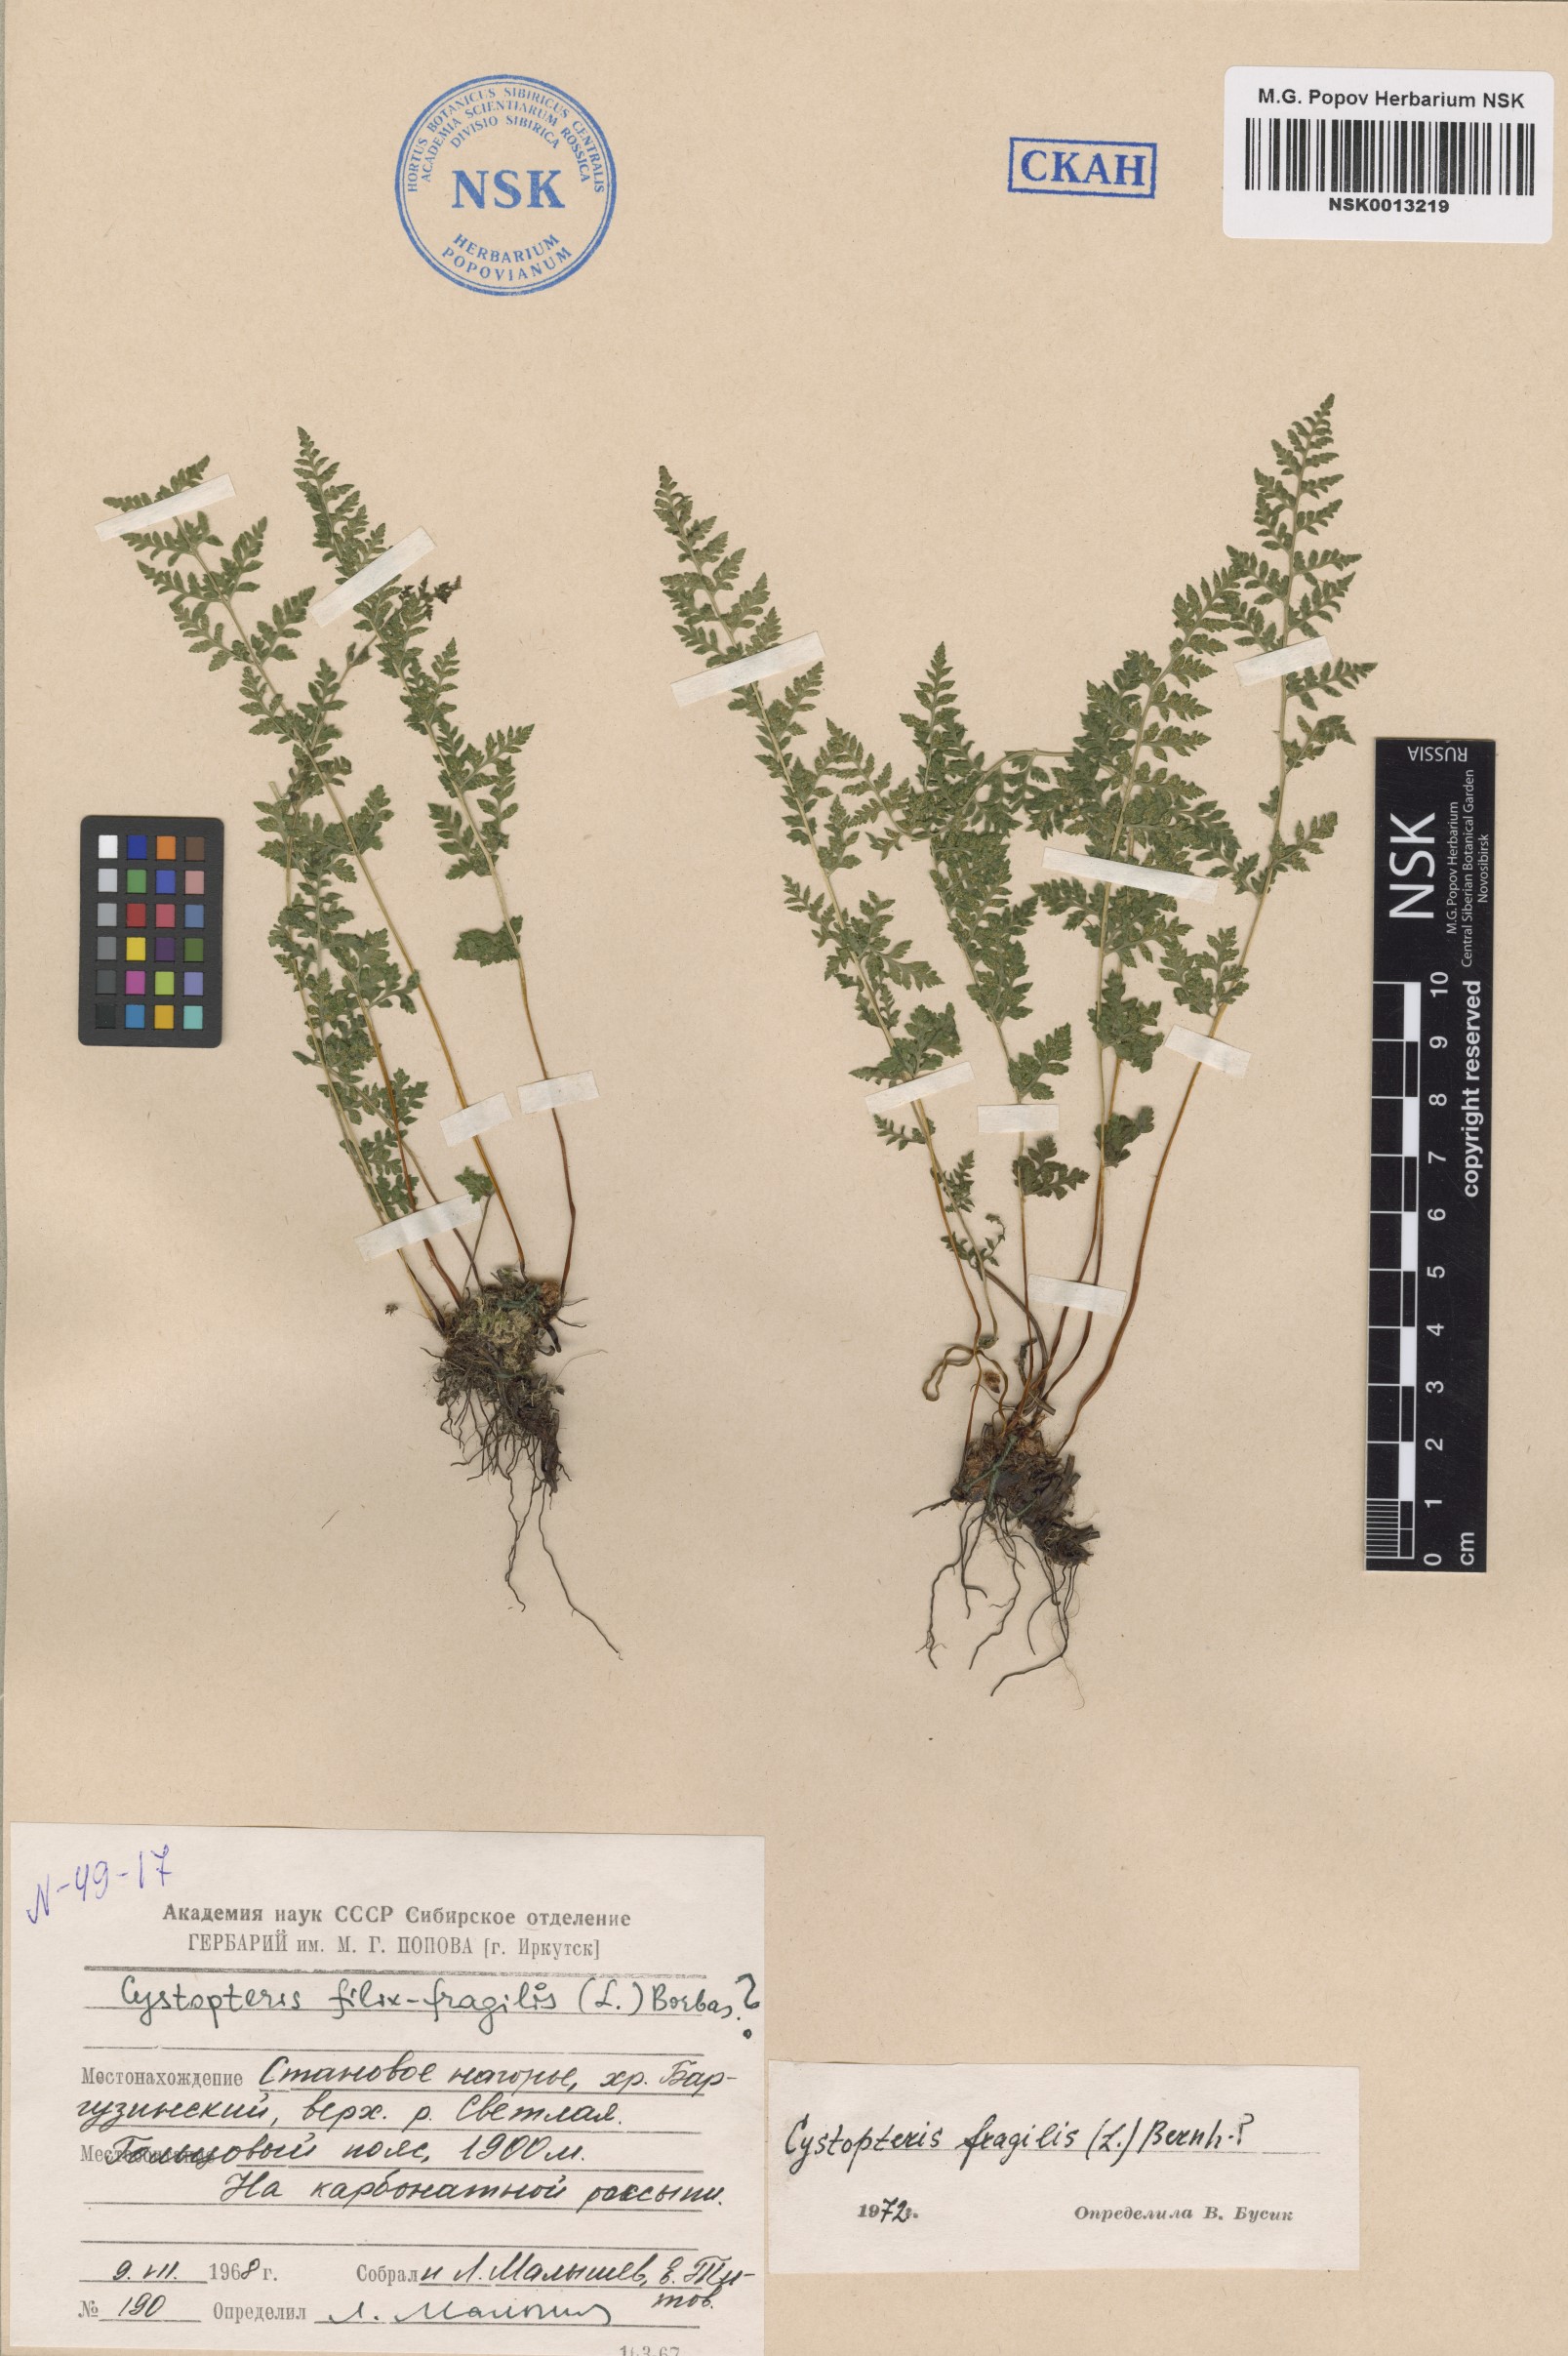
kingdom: Plantae
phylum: Tracheophyta
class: Polypodiopsida
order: Polypodiales
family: Cystopteridaceae
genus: Cystopteris
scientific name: Cystopteris fragilis
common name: Brittle bladder fern
